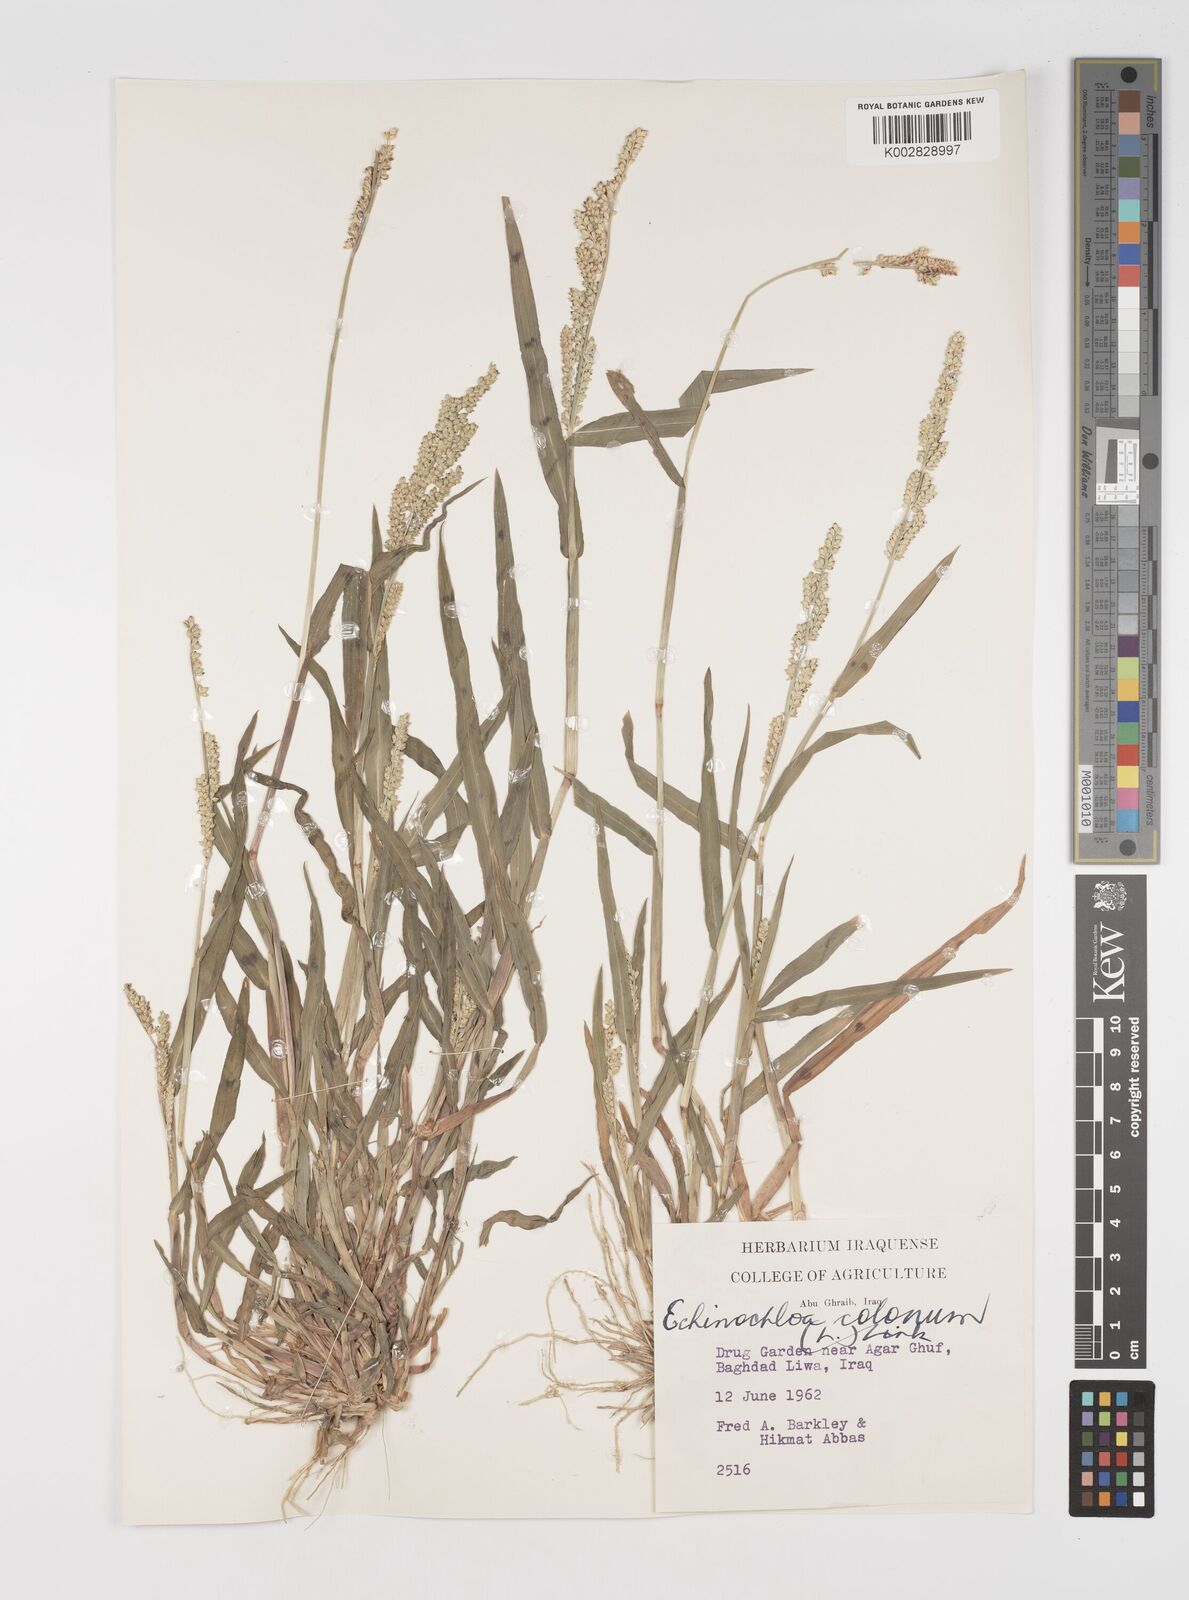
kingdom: Plantae
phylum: Tracheophyta
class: Liliopsida
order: Poales
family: Poaceae
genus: Echinochloa
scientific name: Echinochloa colonum
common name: Jungle rice
